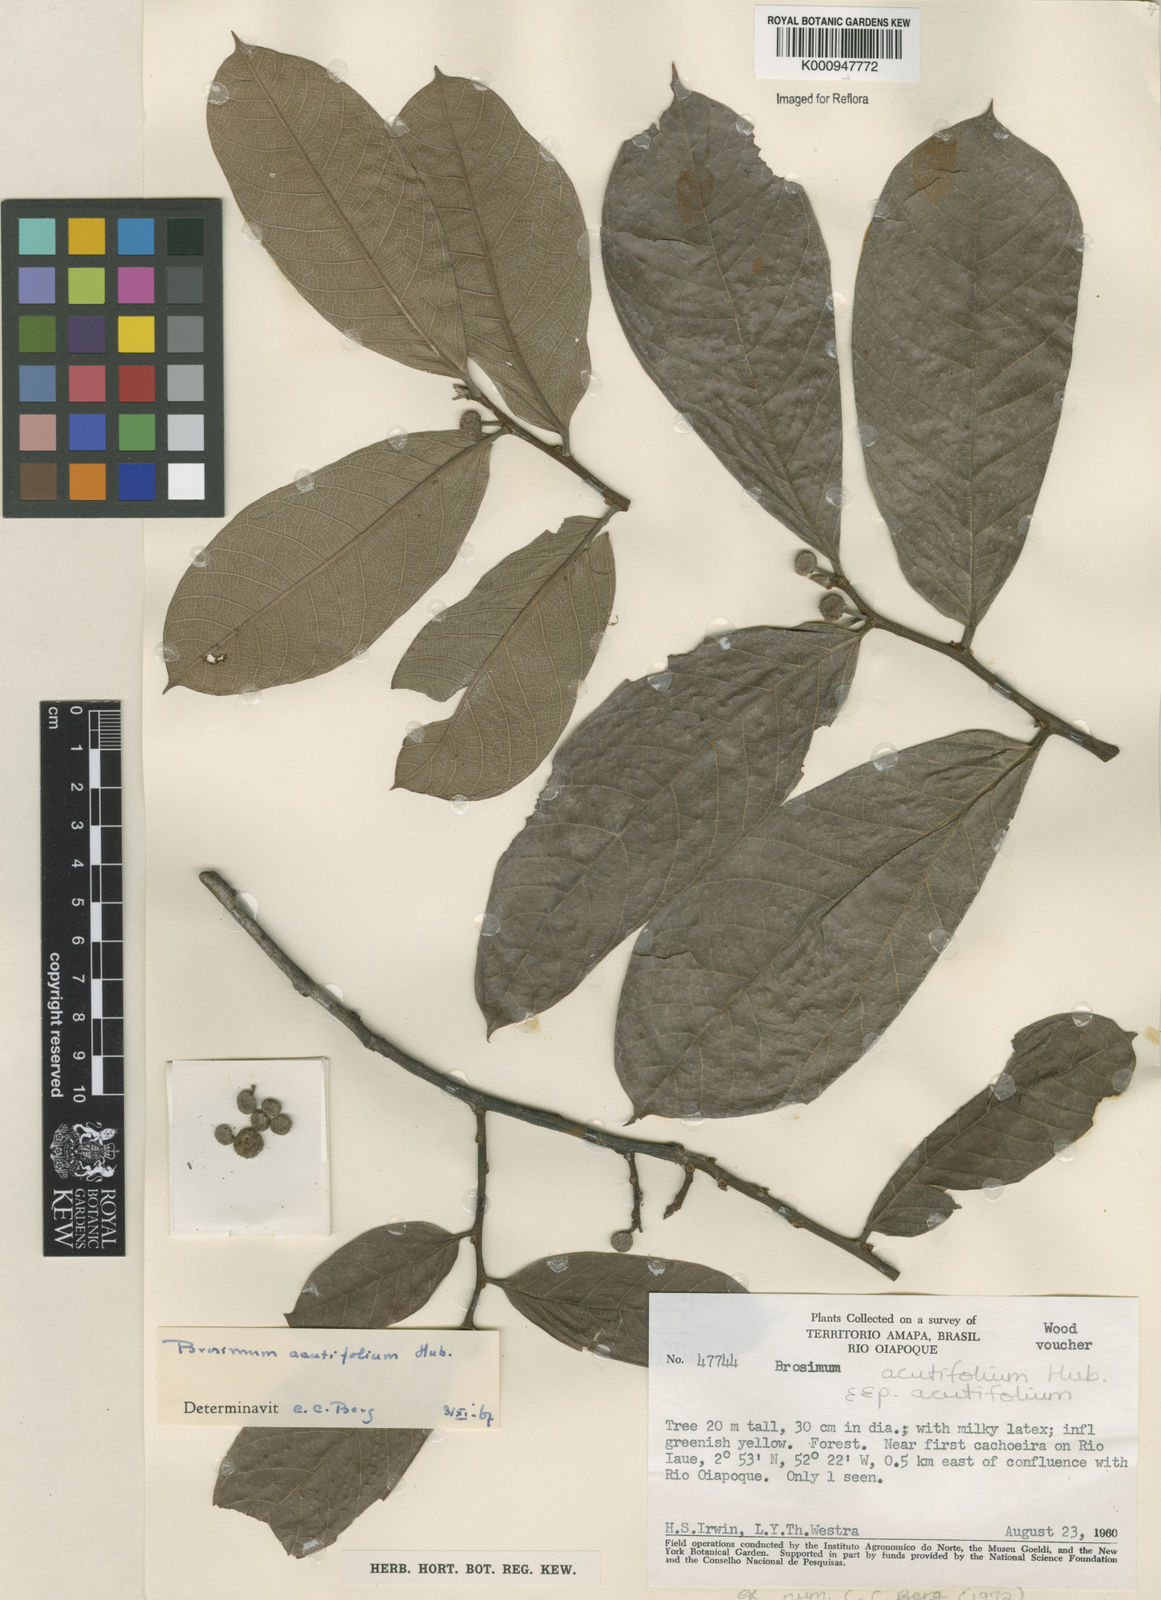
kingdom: Plantae
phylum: Tracheophyta
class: Magnoliopsida
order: Rosales
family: Moraceae
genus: Brosimum
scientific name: Brosimum acutifolium
